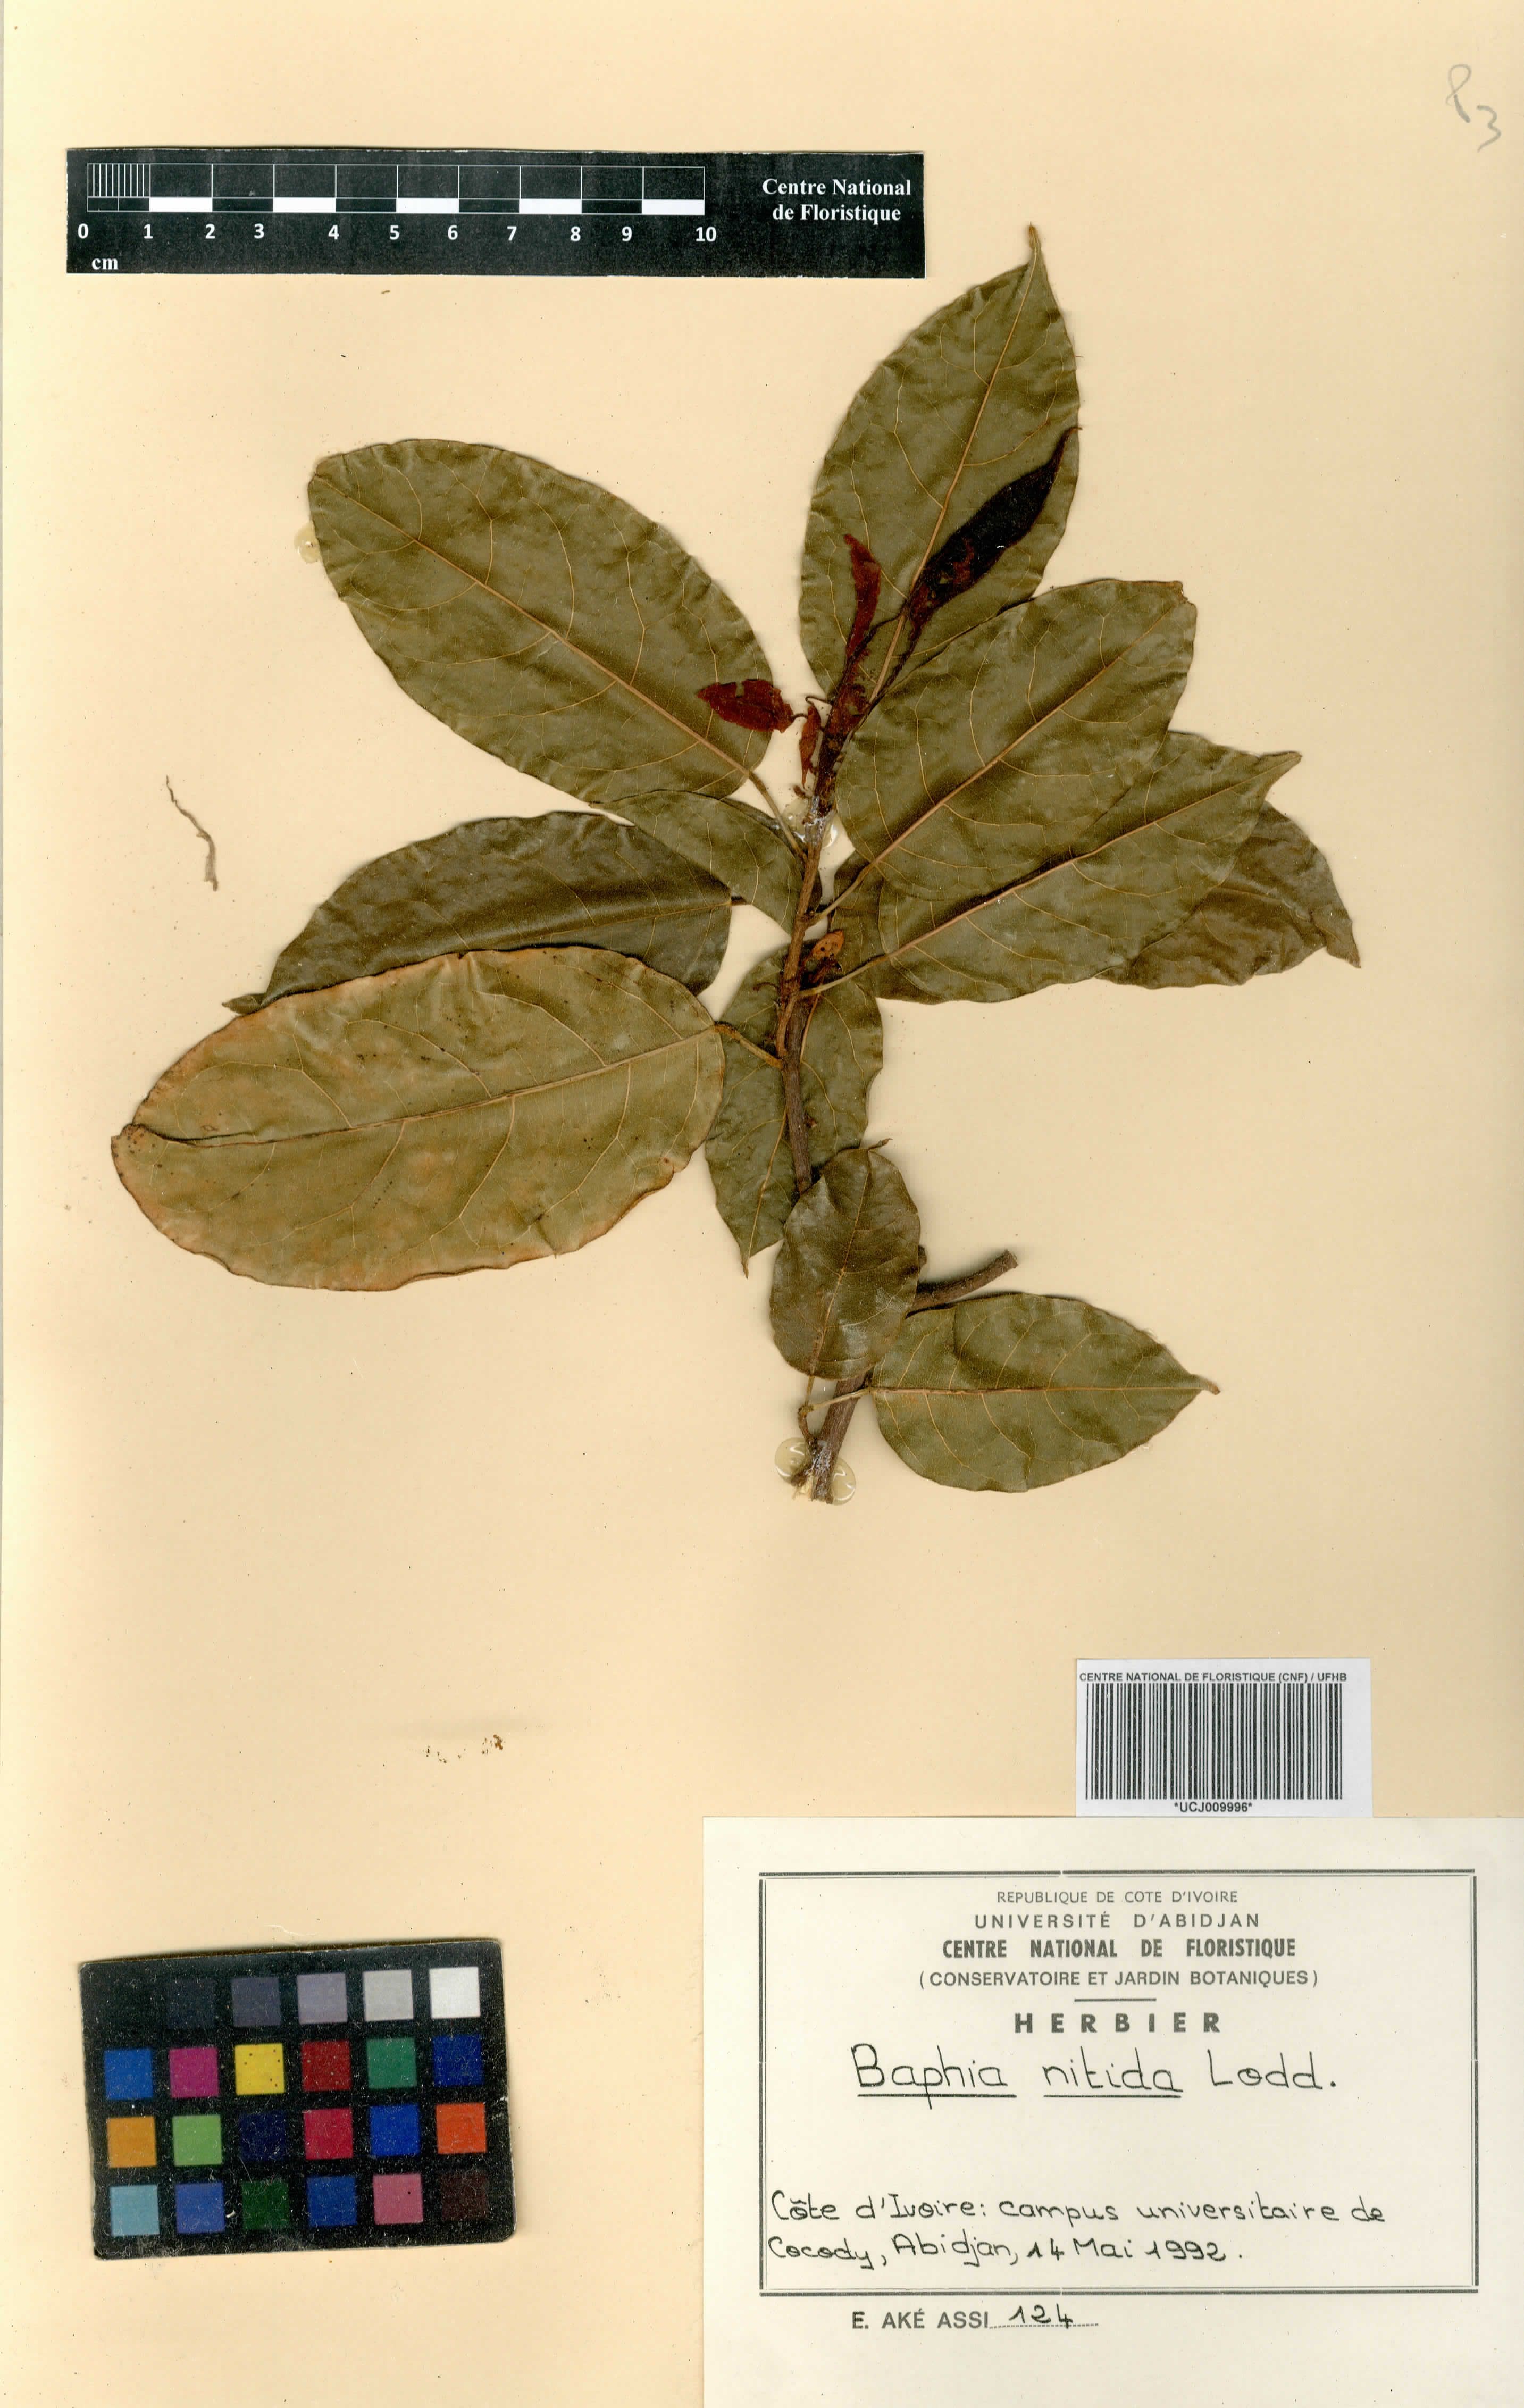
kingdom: Plantae
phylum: Tracheophyta
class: Magnoliopsida
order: Fabales
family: Fabaceae
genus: Baphia
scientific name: Baphia nitida
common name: Camwood
